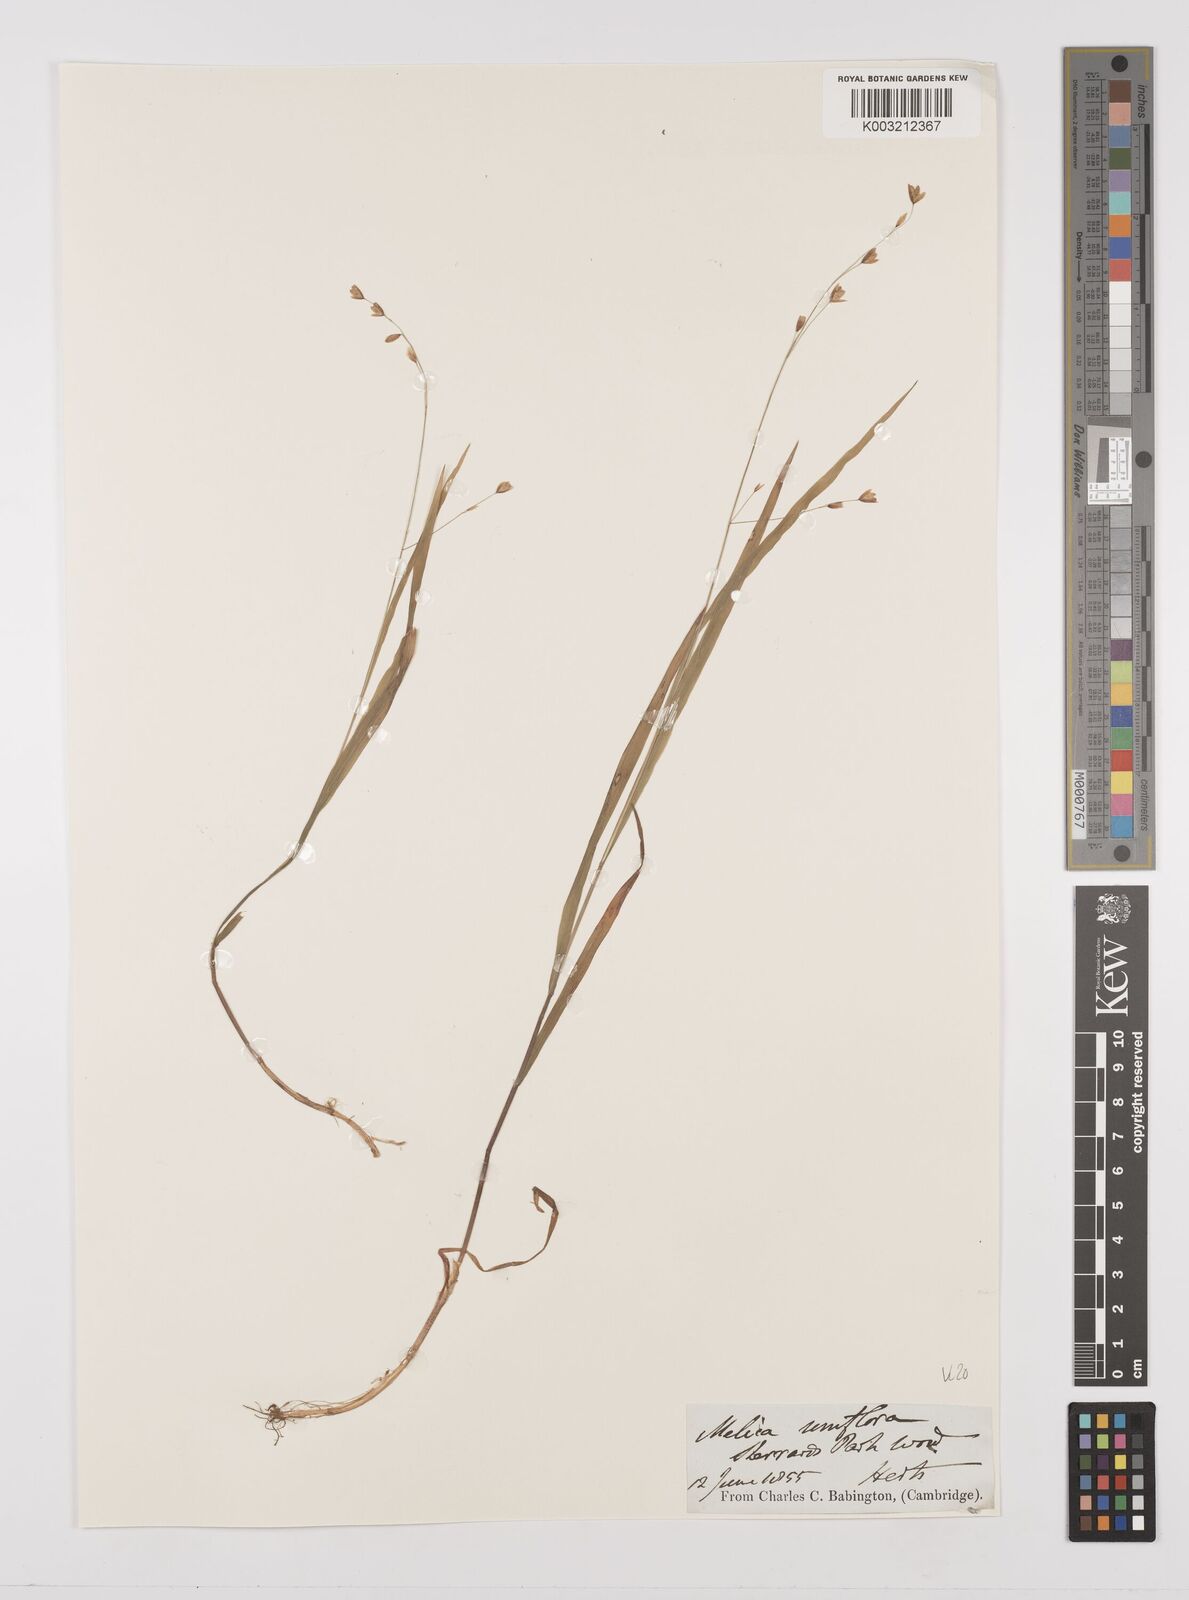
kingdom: Plantae
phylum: Tracheophyta
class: Liliopsida
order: Poales
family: Poaceae
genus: Melica
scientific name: Melica uniflora
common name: Wood melick
